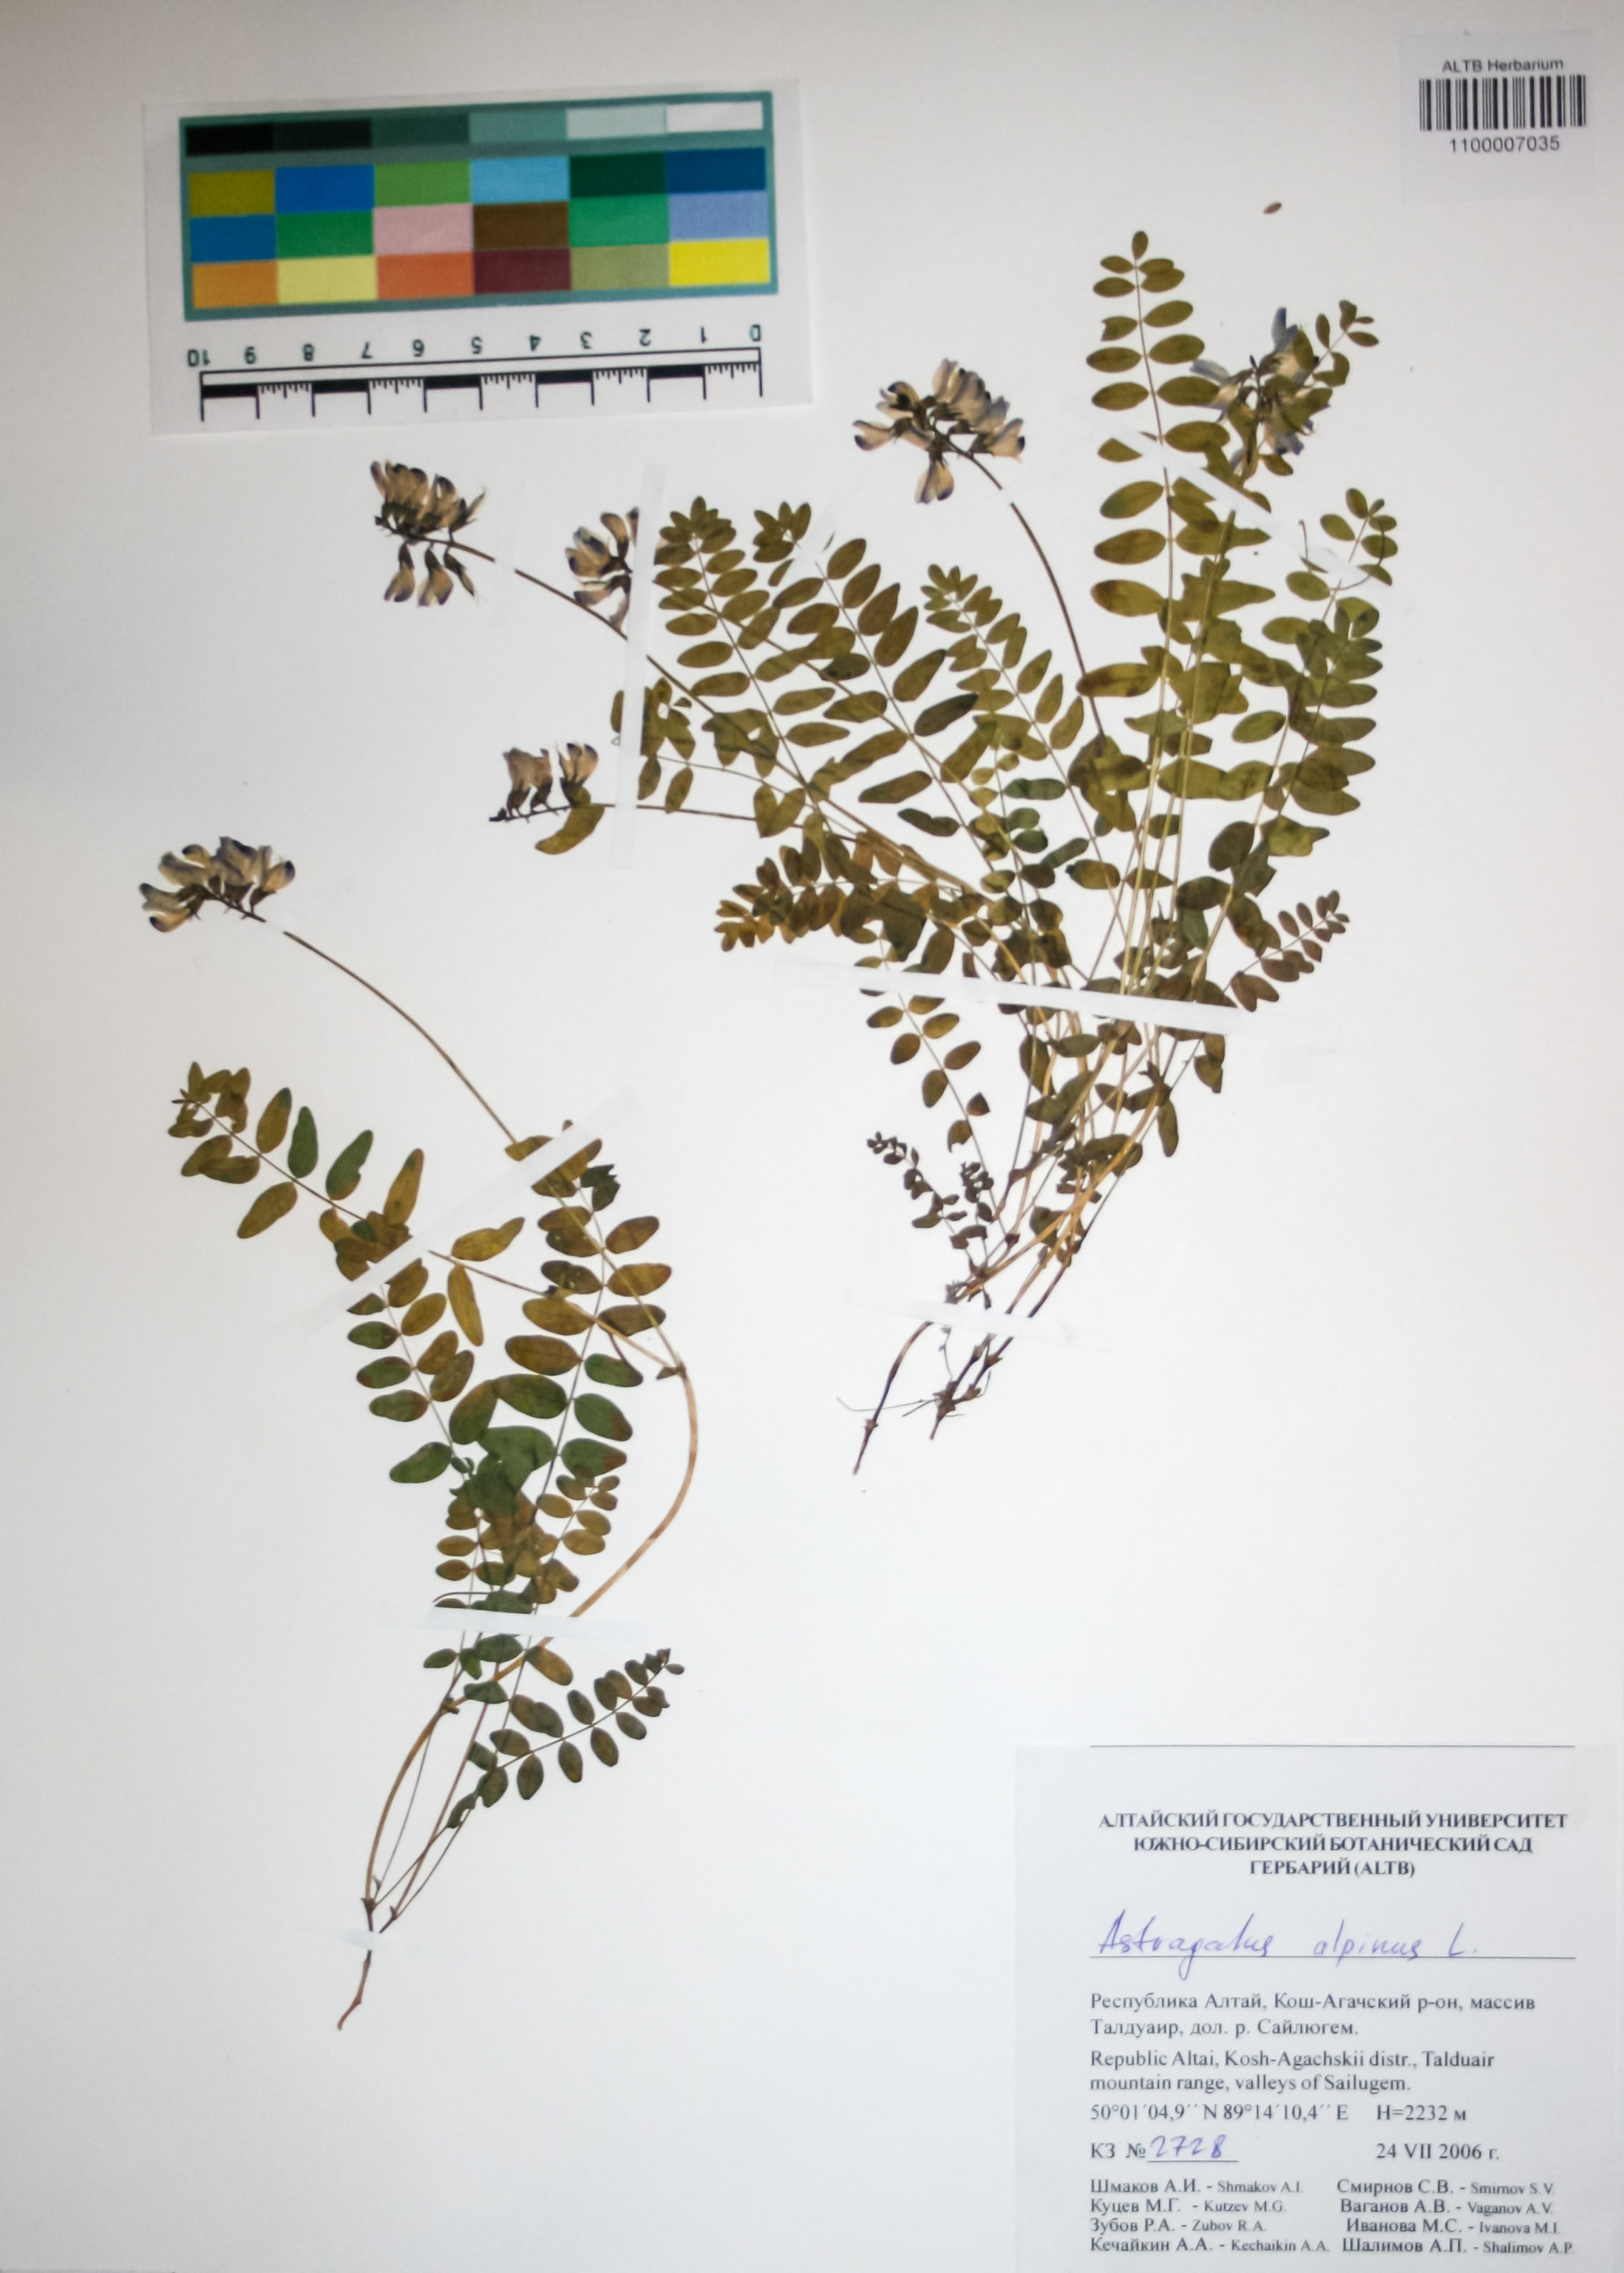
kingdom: Plantae
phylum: Tracheophyta
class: Magnoliopsida
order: Fabales
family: Fabaceae
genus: Astragalus
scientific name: Astragalus alpinus
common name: Alpine milk-vetch
